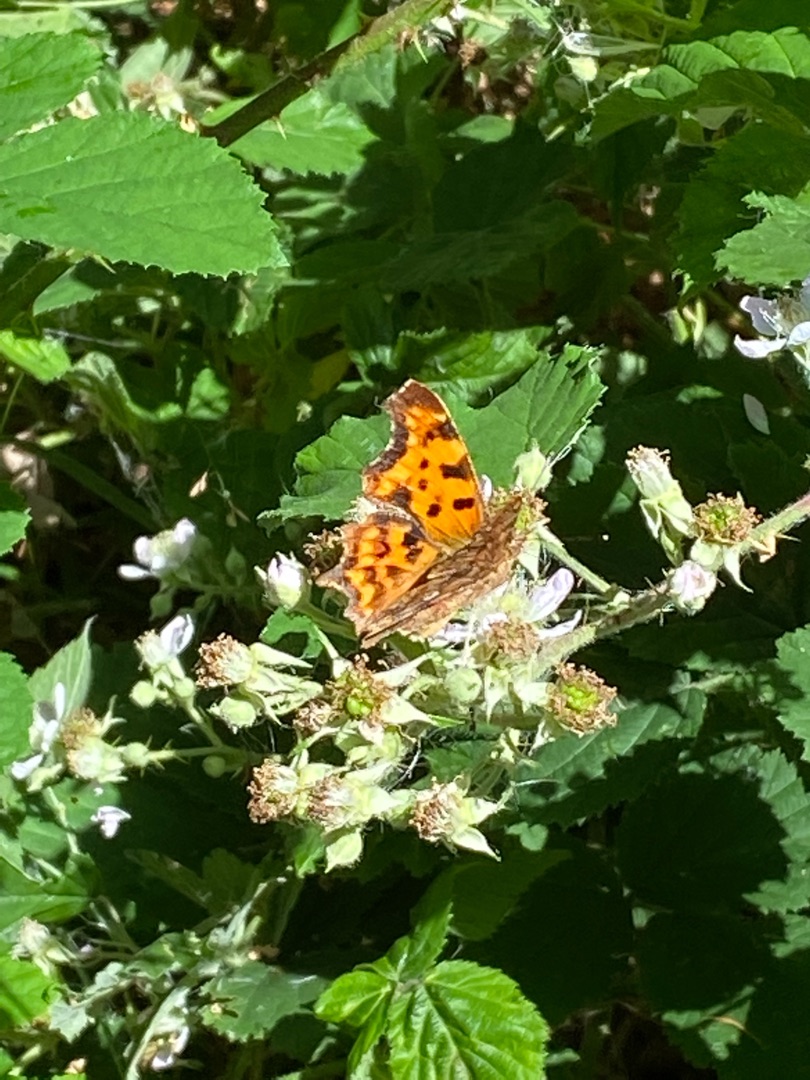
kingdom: Animalia
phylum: Arthropoda
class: Insecta
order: Lepidoptera
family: Nymphalidae
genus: Polygonia
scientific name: Polygonia c-album
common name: Det hvide C
